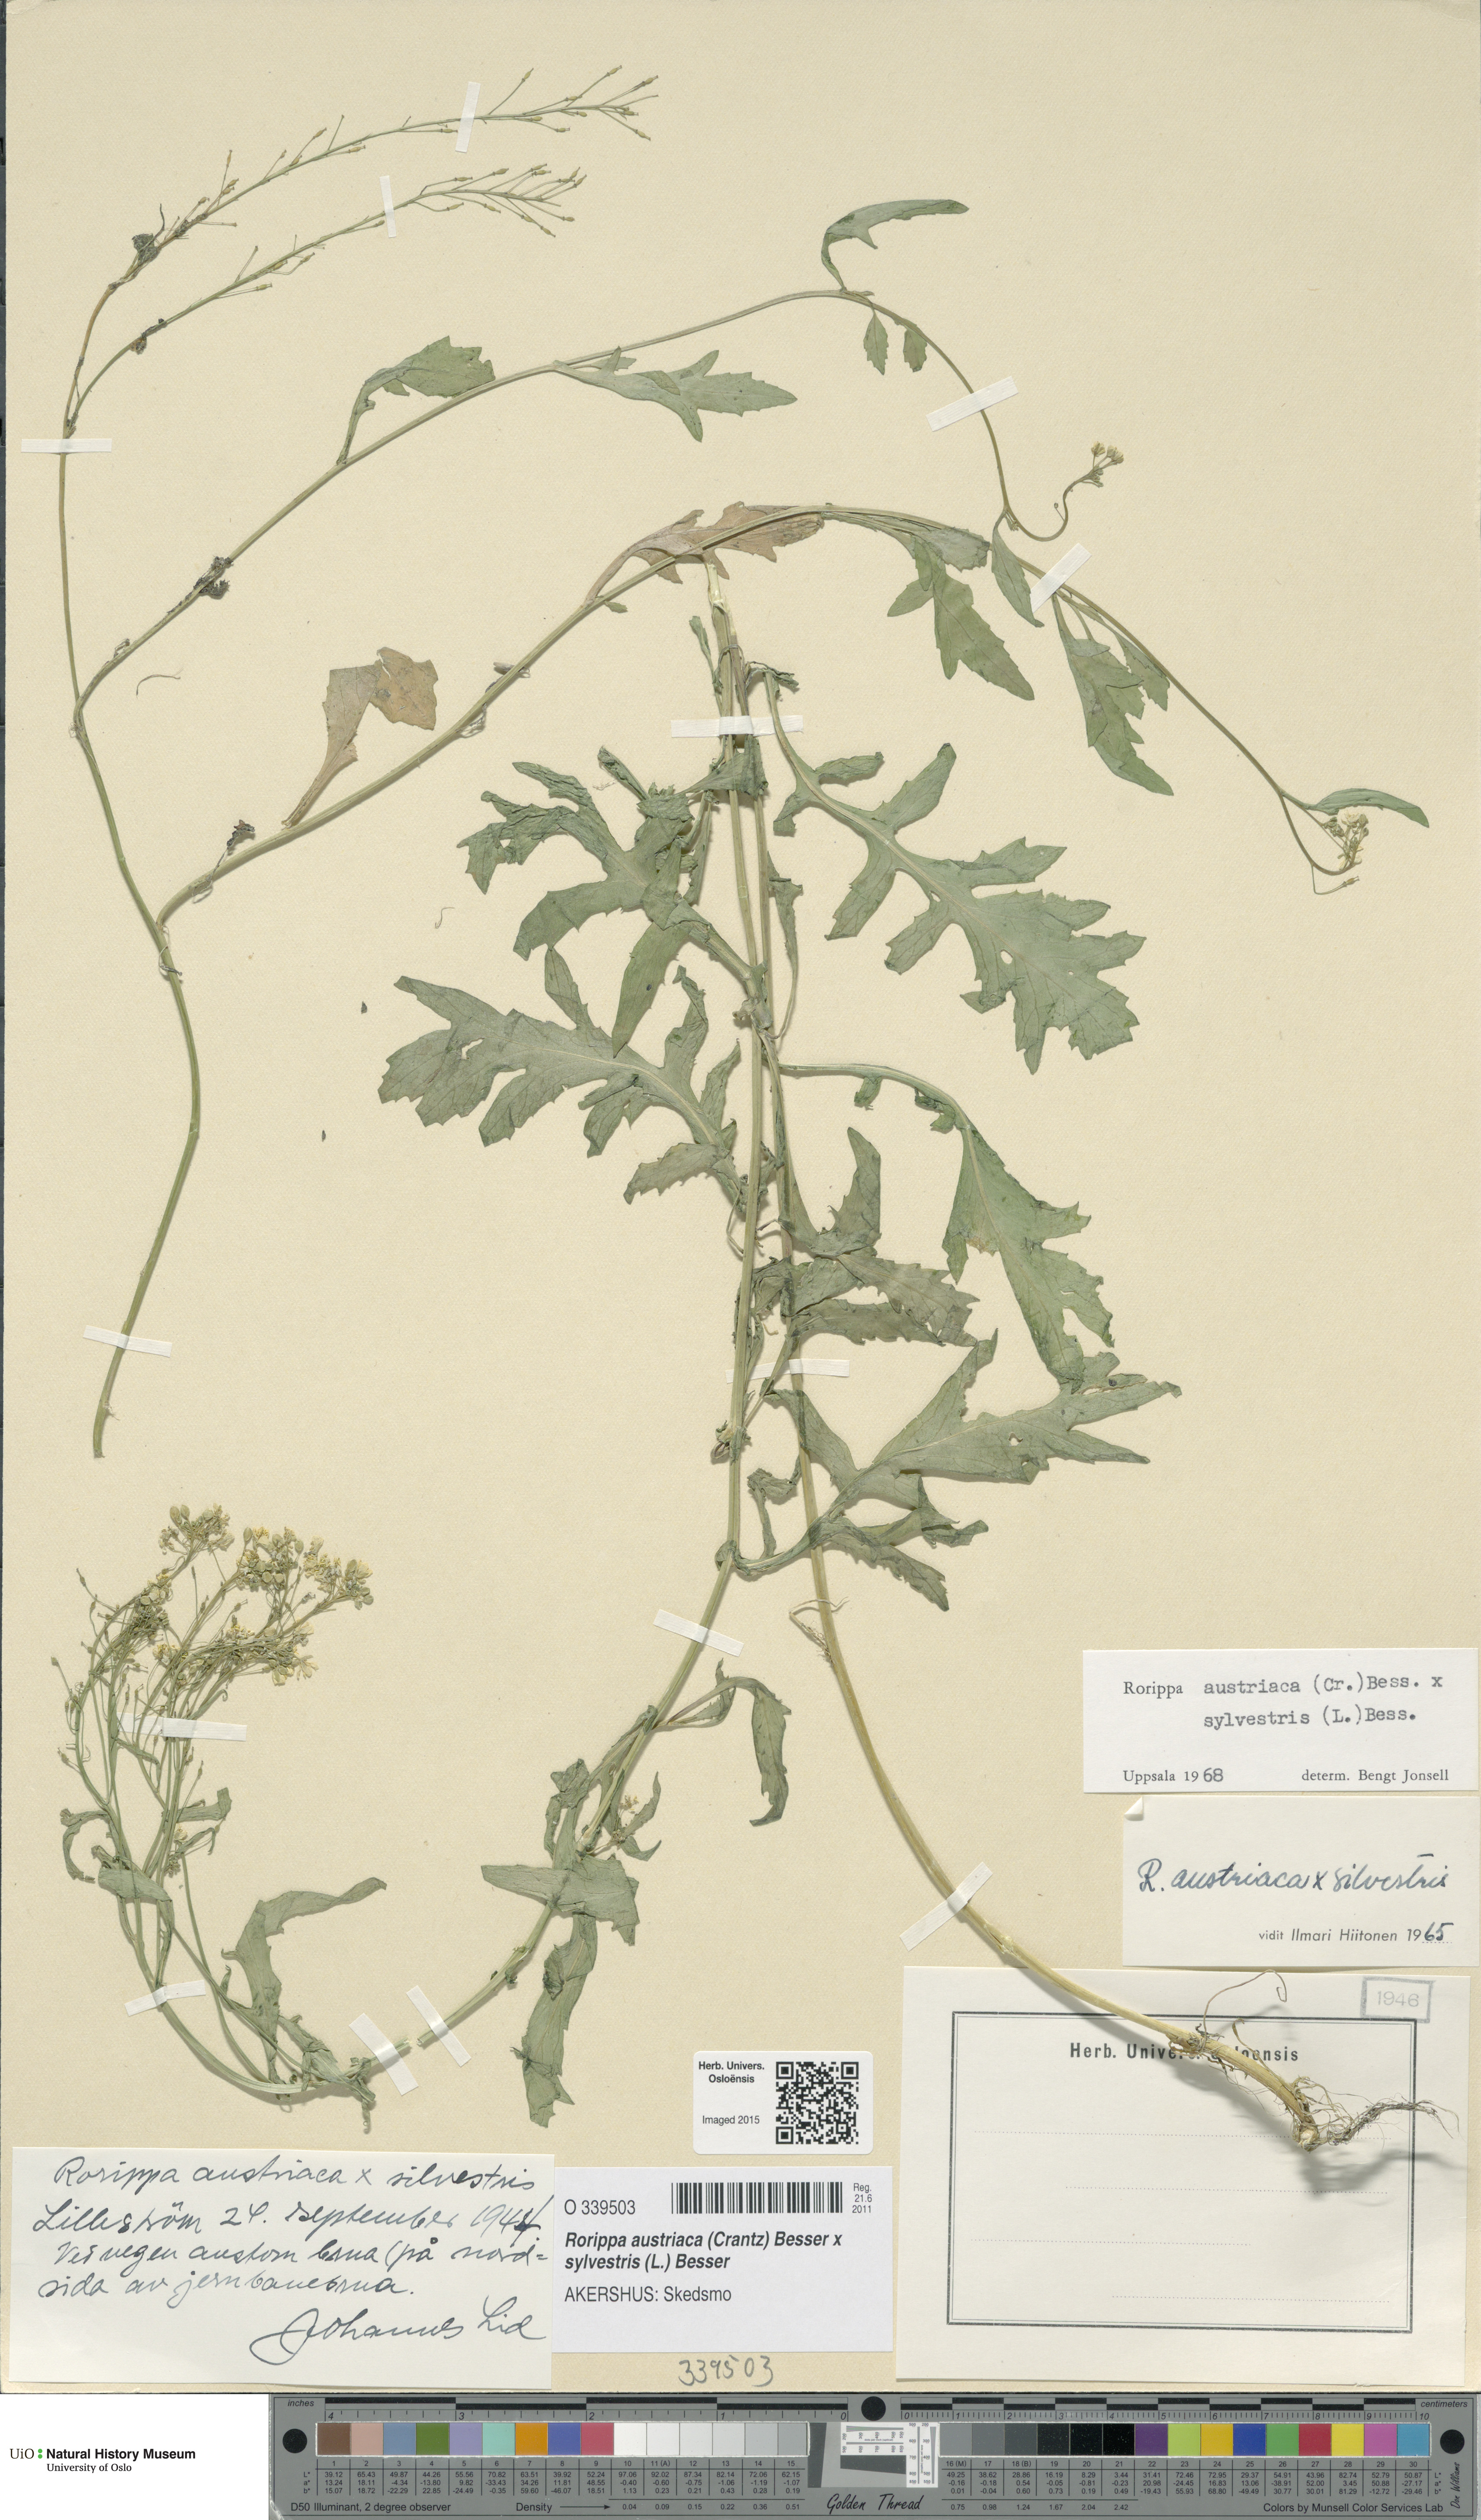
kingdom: Plantae
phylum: Tracheophyta
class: Magnoliopsida
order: Brassicales
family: Brassicaceae
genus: Rorippa
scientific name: Rorippa
